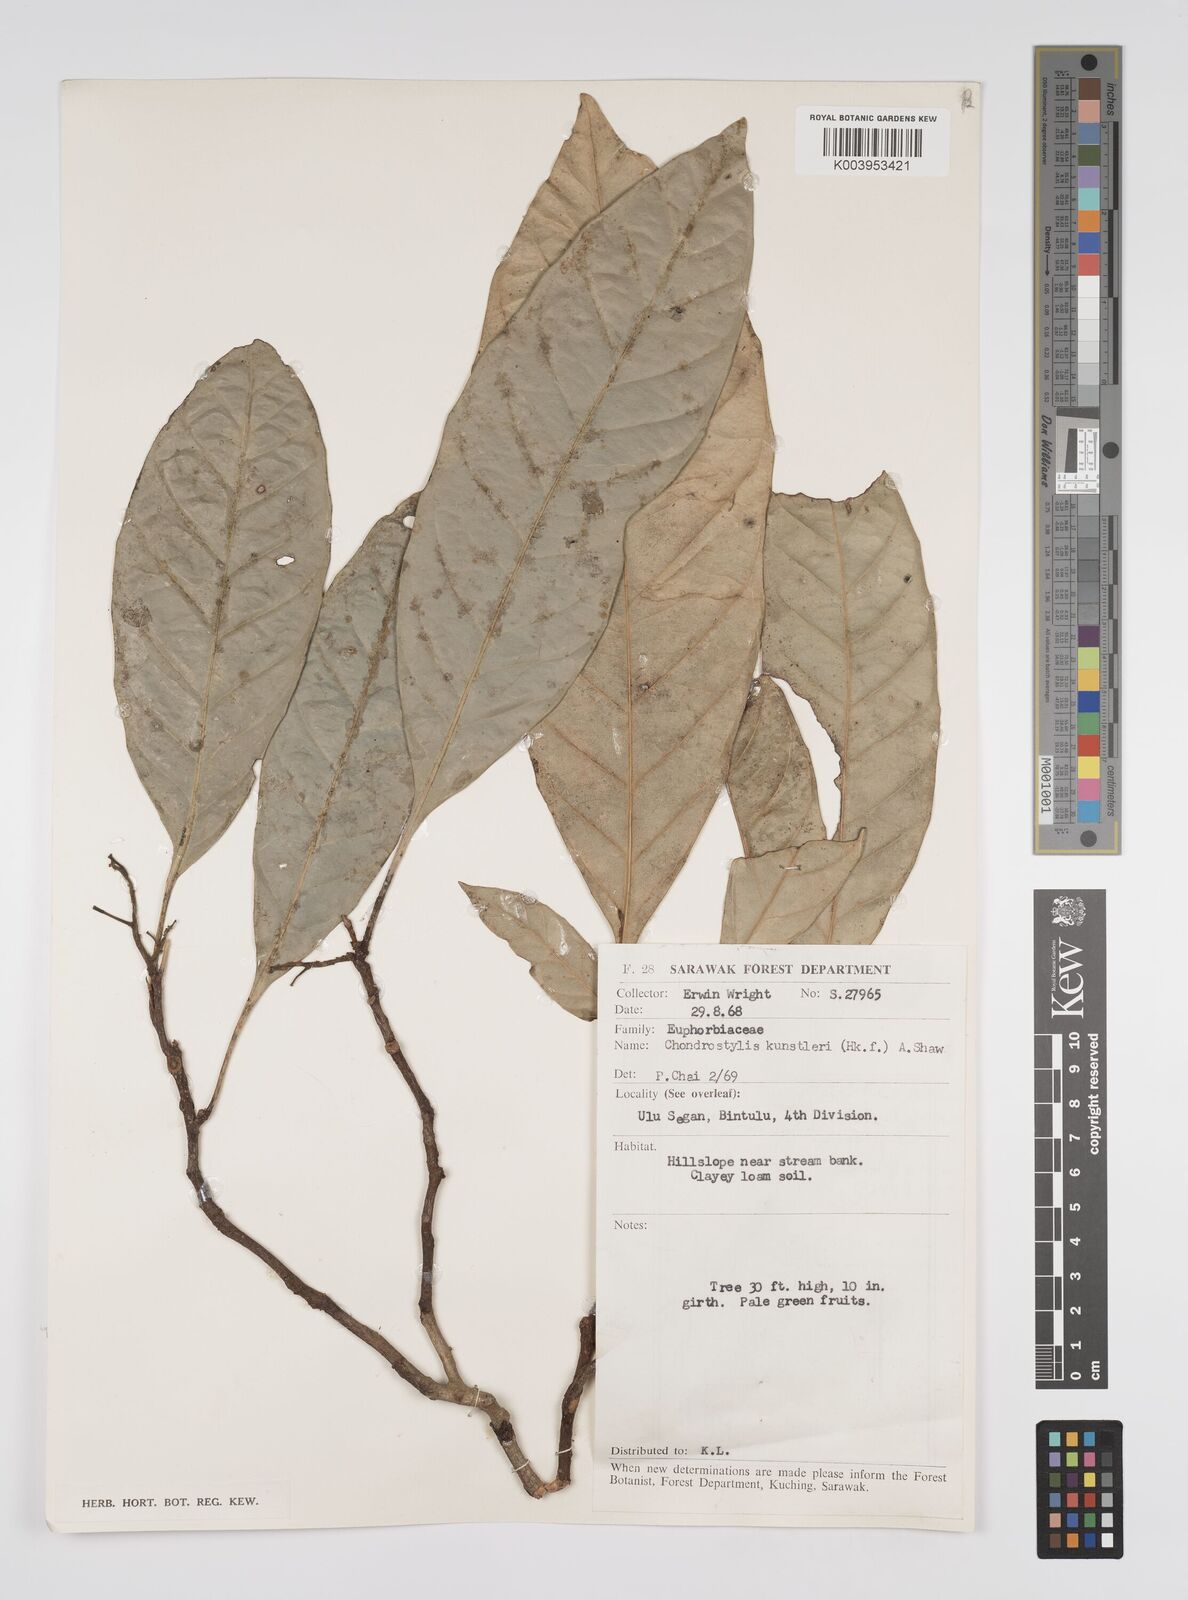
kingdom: Plantae
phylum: Tracheophyta
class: Magnoliopsida
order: Malpighiales
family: Euphorbiaceae
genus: Chondrostylis
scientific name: Chondrostylis kunstleri
